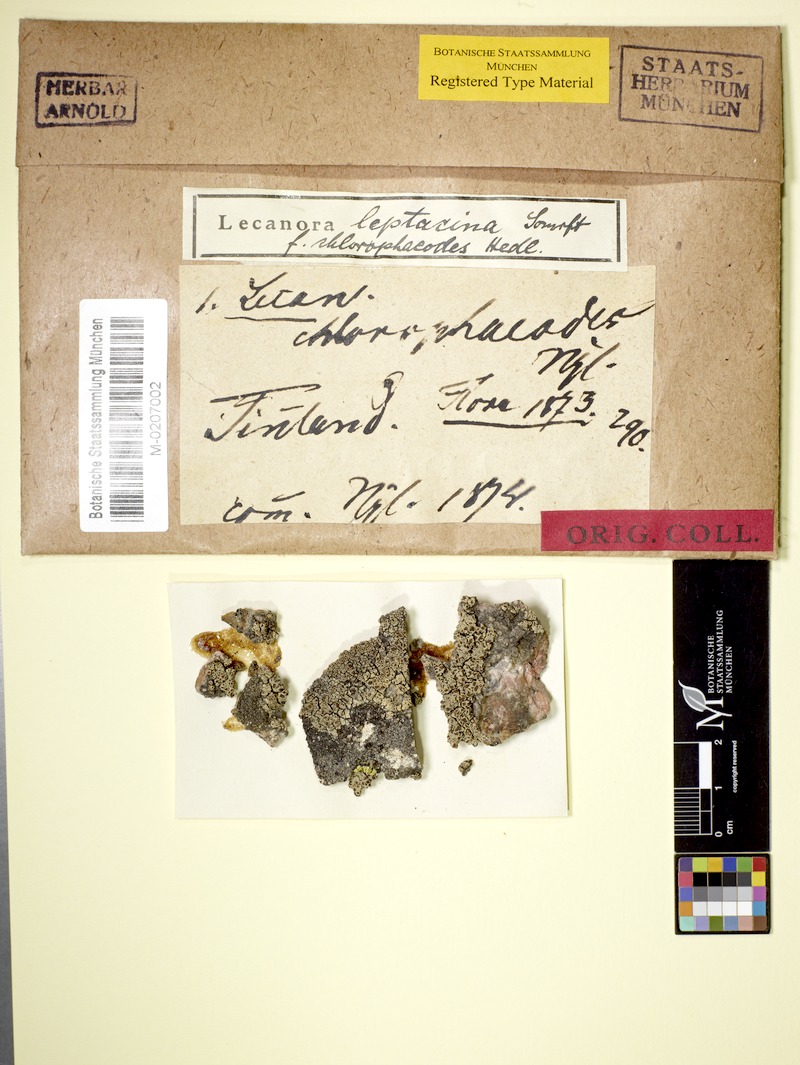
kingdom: Fungi
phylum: Ascomycota
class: Lecanoromycetes
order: Lecanorales
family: Lecanoraceae
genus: Lecanora
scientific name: Lecanora chlorophaeodes
